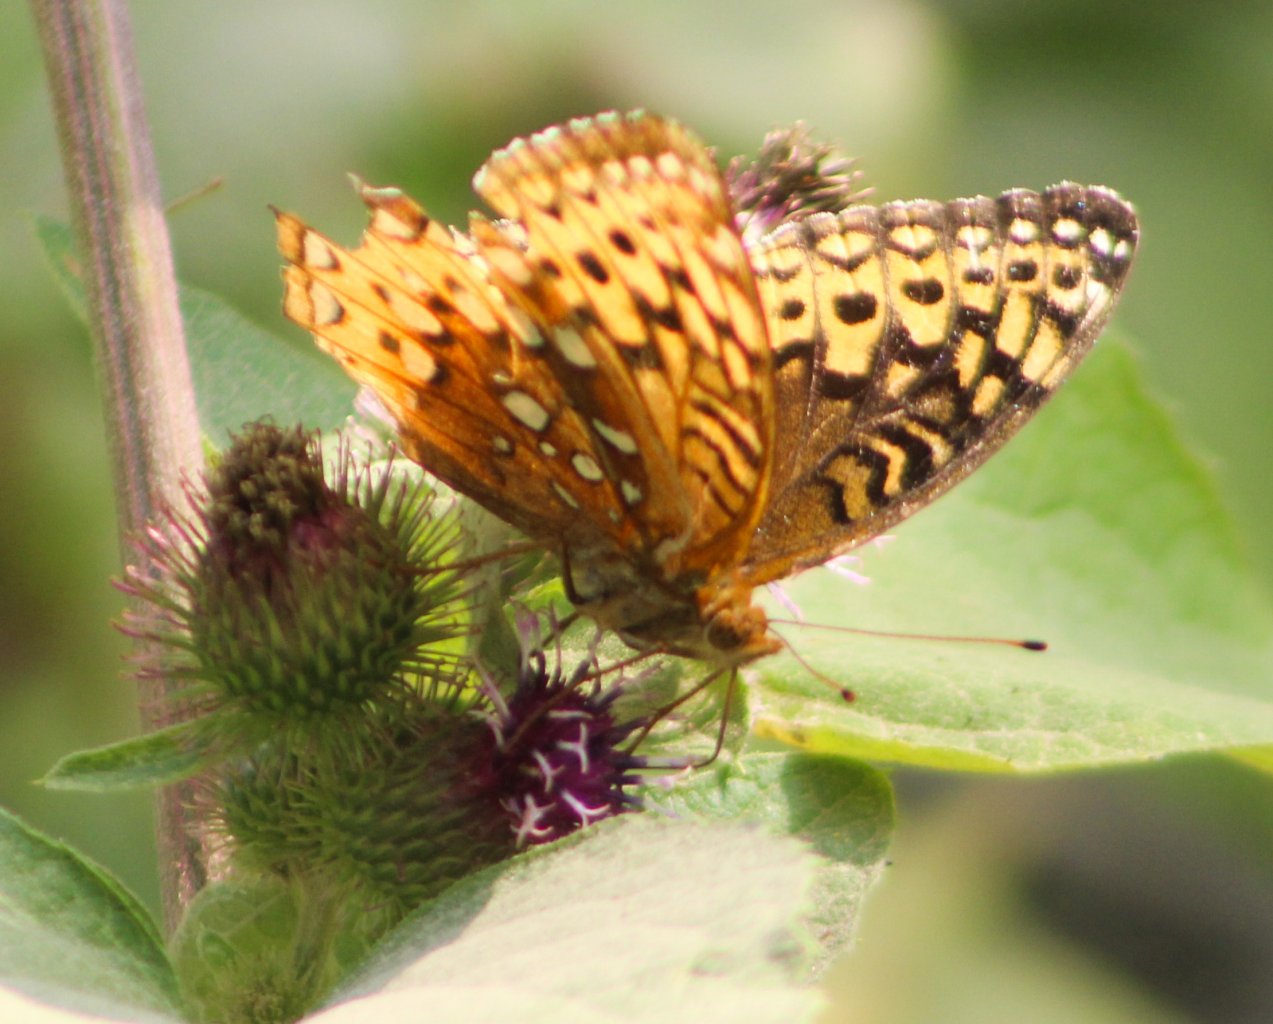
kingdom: Animalia
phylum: Arthropoda
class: Insecta
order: Lepidoptera
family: Nymphalidae
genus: Speyeria
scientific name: Speyeria cybele
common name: Great Spangled Fritillary
